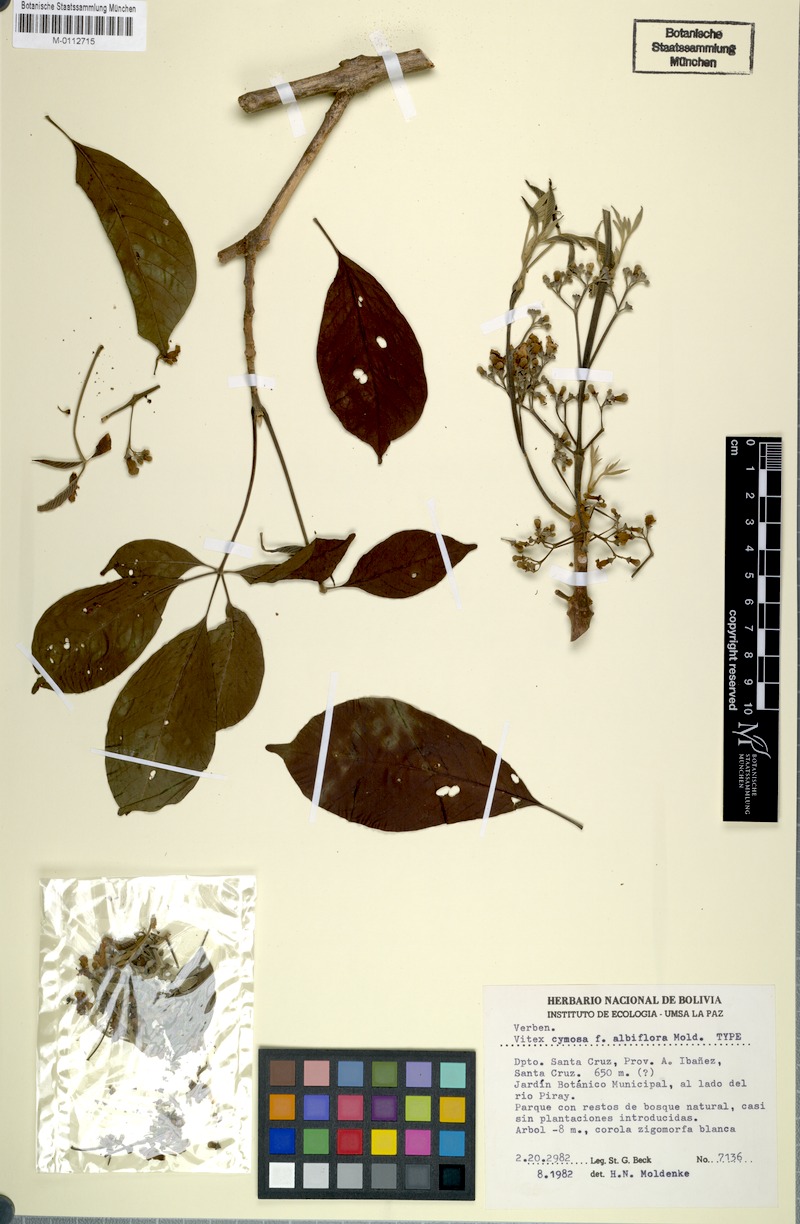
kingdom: Plantae
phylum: Tracheophyta
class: Magnoliopsida
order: Lamiales
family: Lamiaceae
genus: Vitex
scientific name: Vitex cymosa
